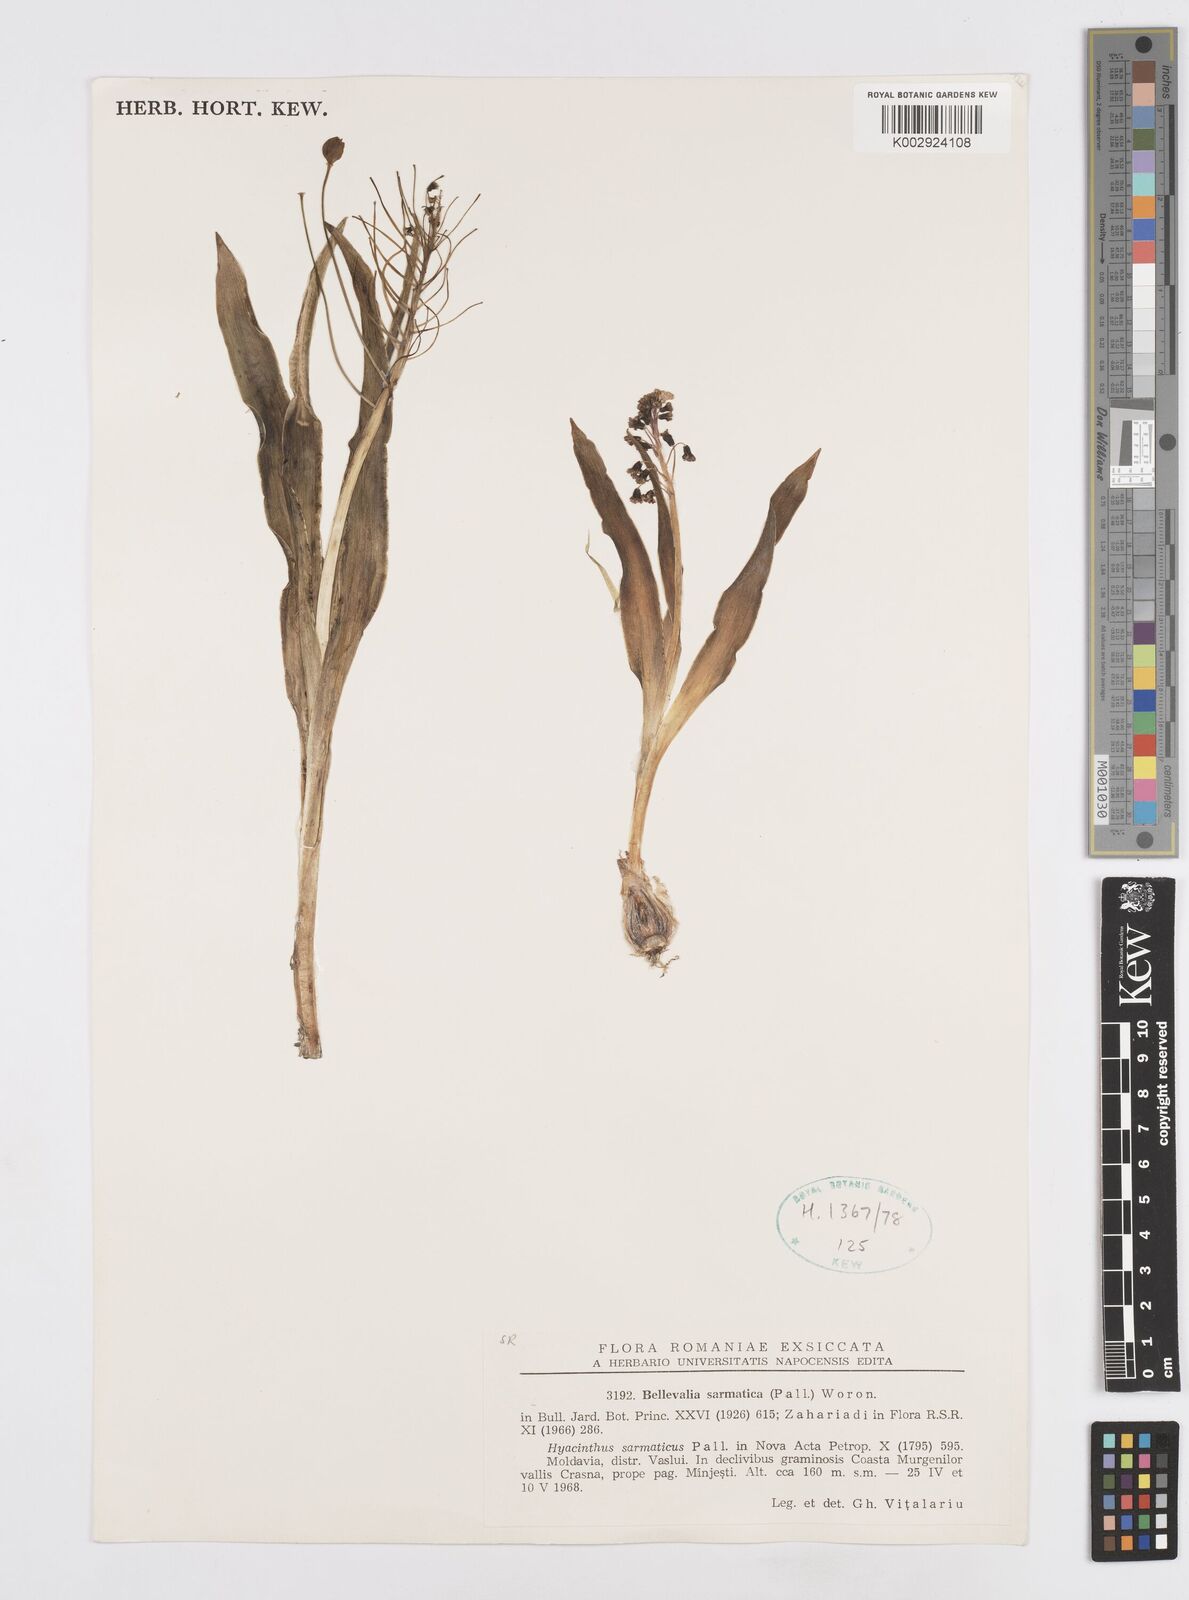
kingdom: Plantae
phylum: Tracheophyta
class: Liliopsida
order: Asparagales
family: Asparagaceae
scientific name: Asparagaceae
